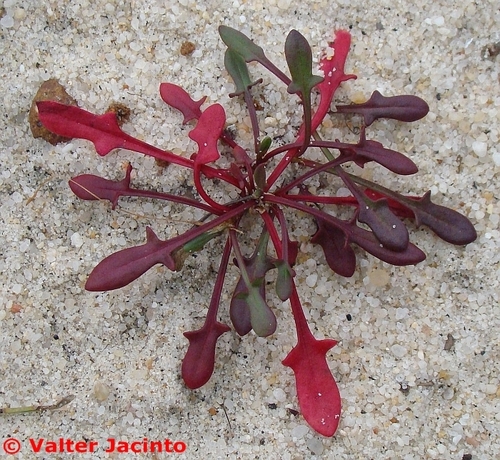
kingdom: Plantae
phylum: Tracheophyta
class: Magnoliopsida
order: Caryophyllales
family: Polygonaceae
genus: Rumex
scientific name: Rumex acetosella
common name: Common sheep sorrel
